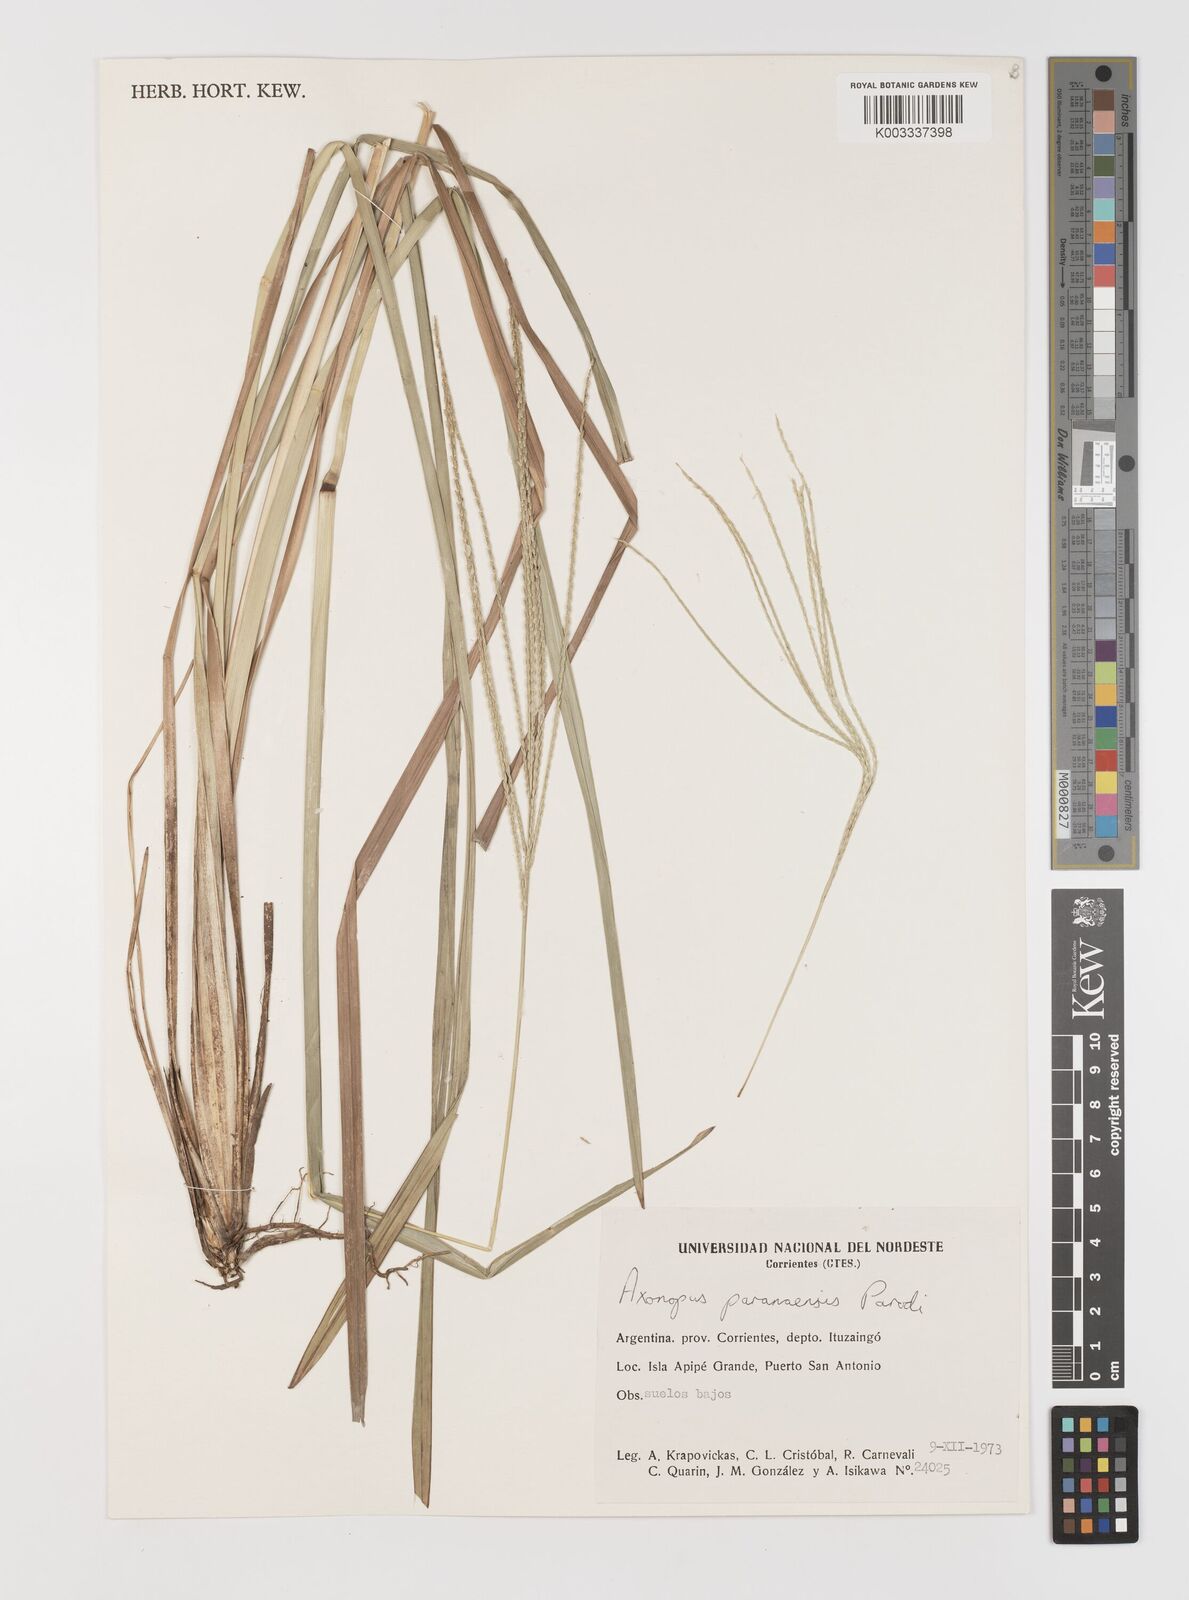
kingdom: Plantae
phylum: Tracheophyta
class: Liliopsida
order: Poales
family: Poaceae
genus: Axonopus
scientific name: Axonopus leptostachyus
